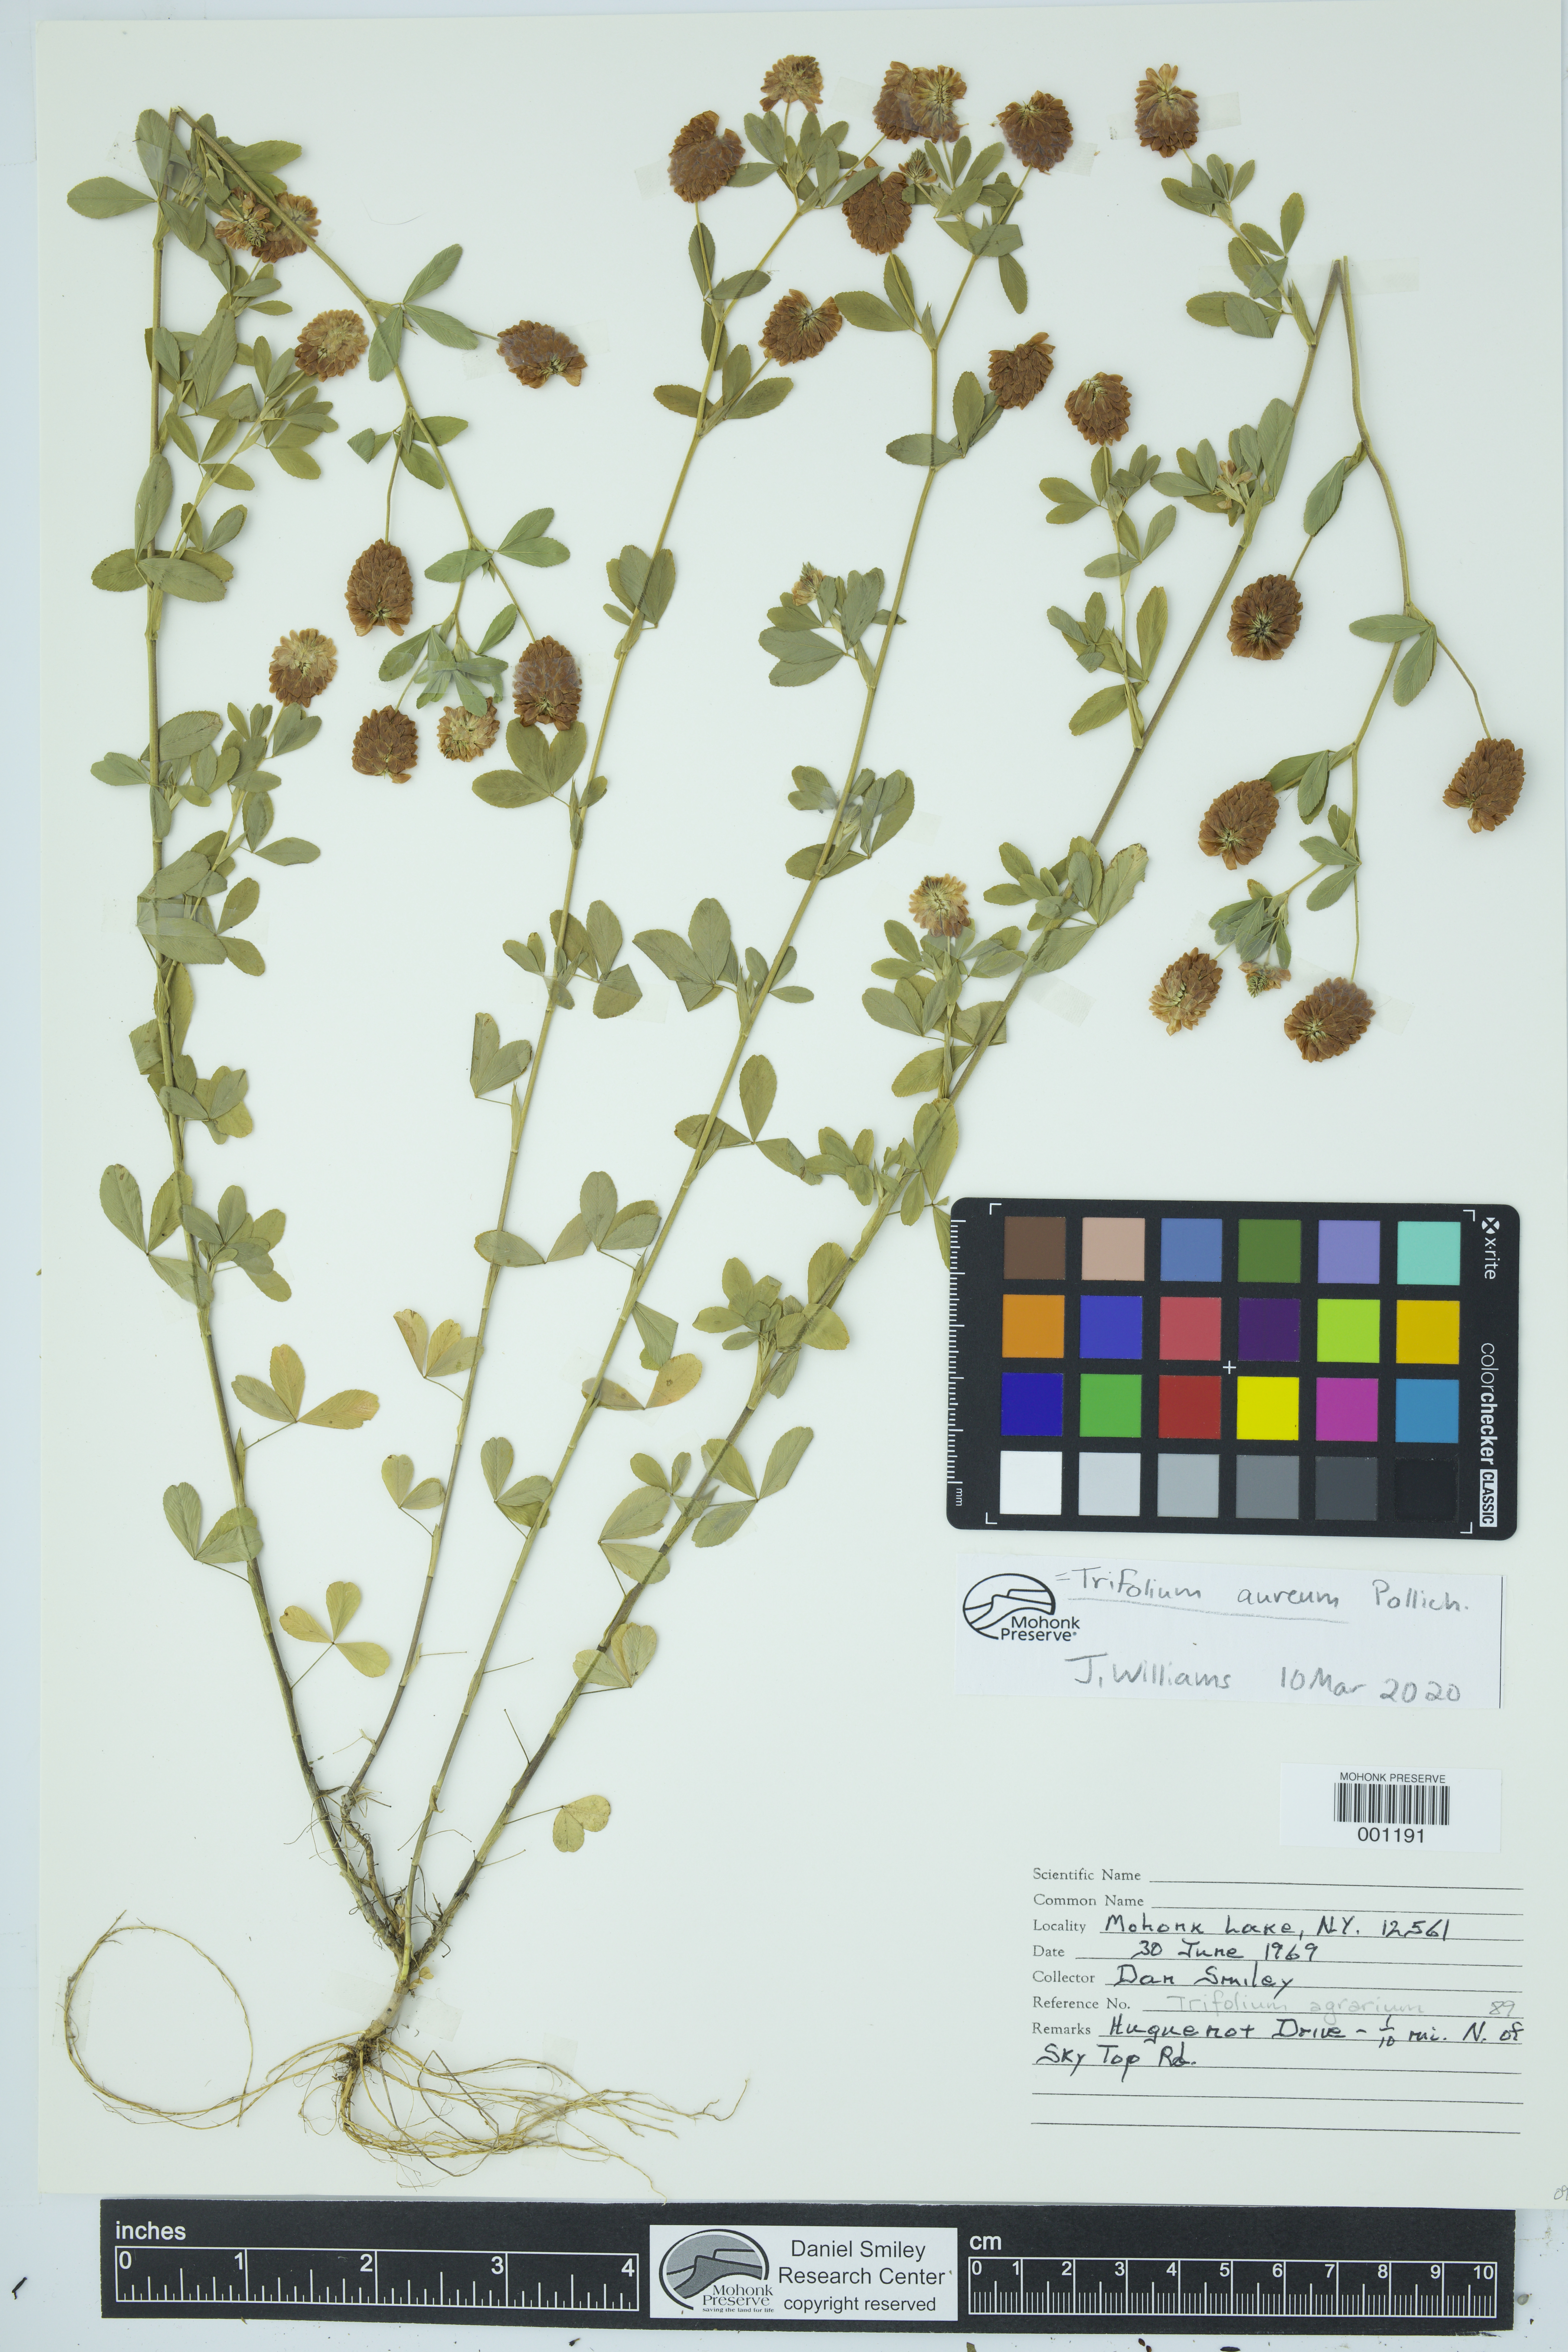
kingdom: Plantae
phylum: Tracheophyta
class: Magnoliopsida
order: Fabales
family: Fabaceae
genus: Trifolium
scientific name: Trifolium aureum
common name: Golden clover
